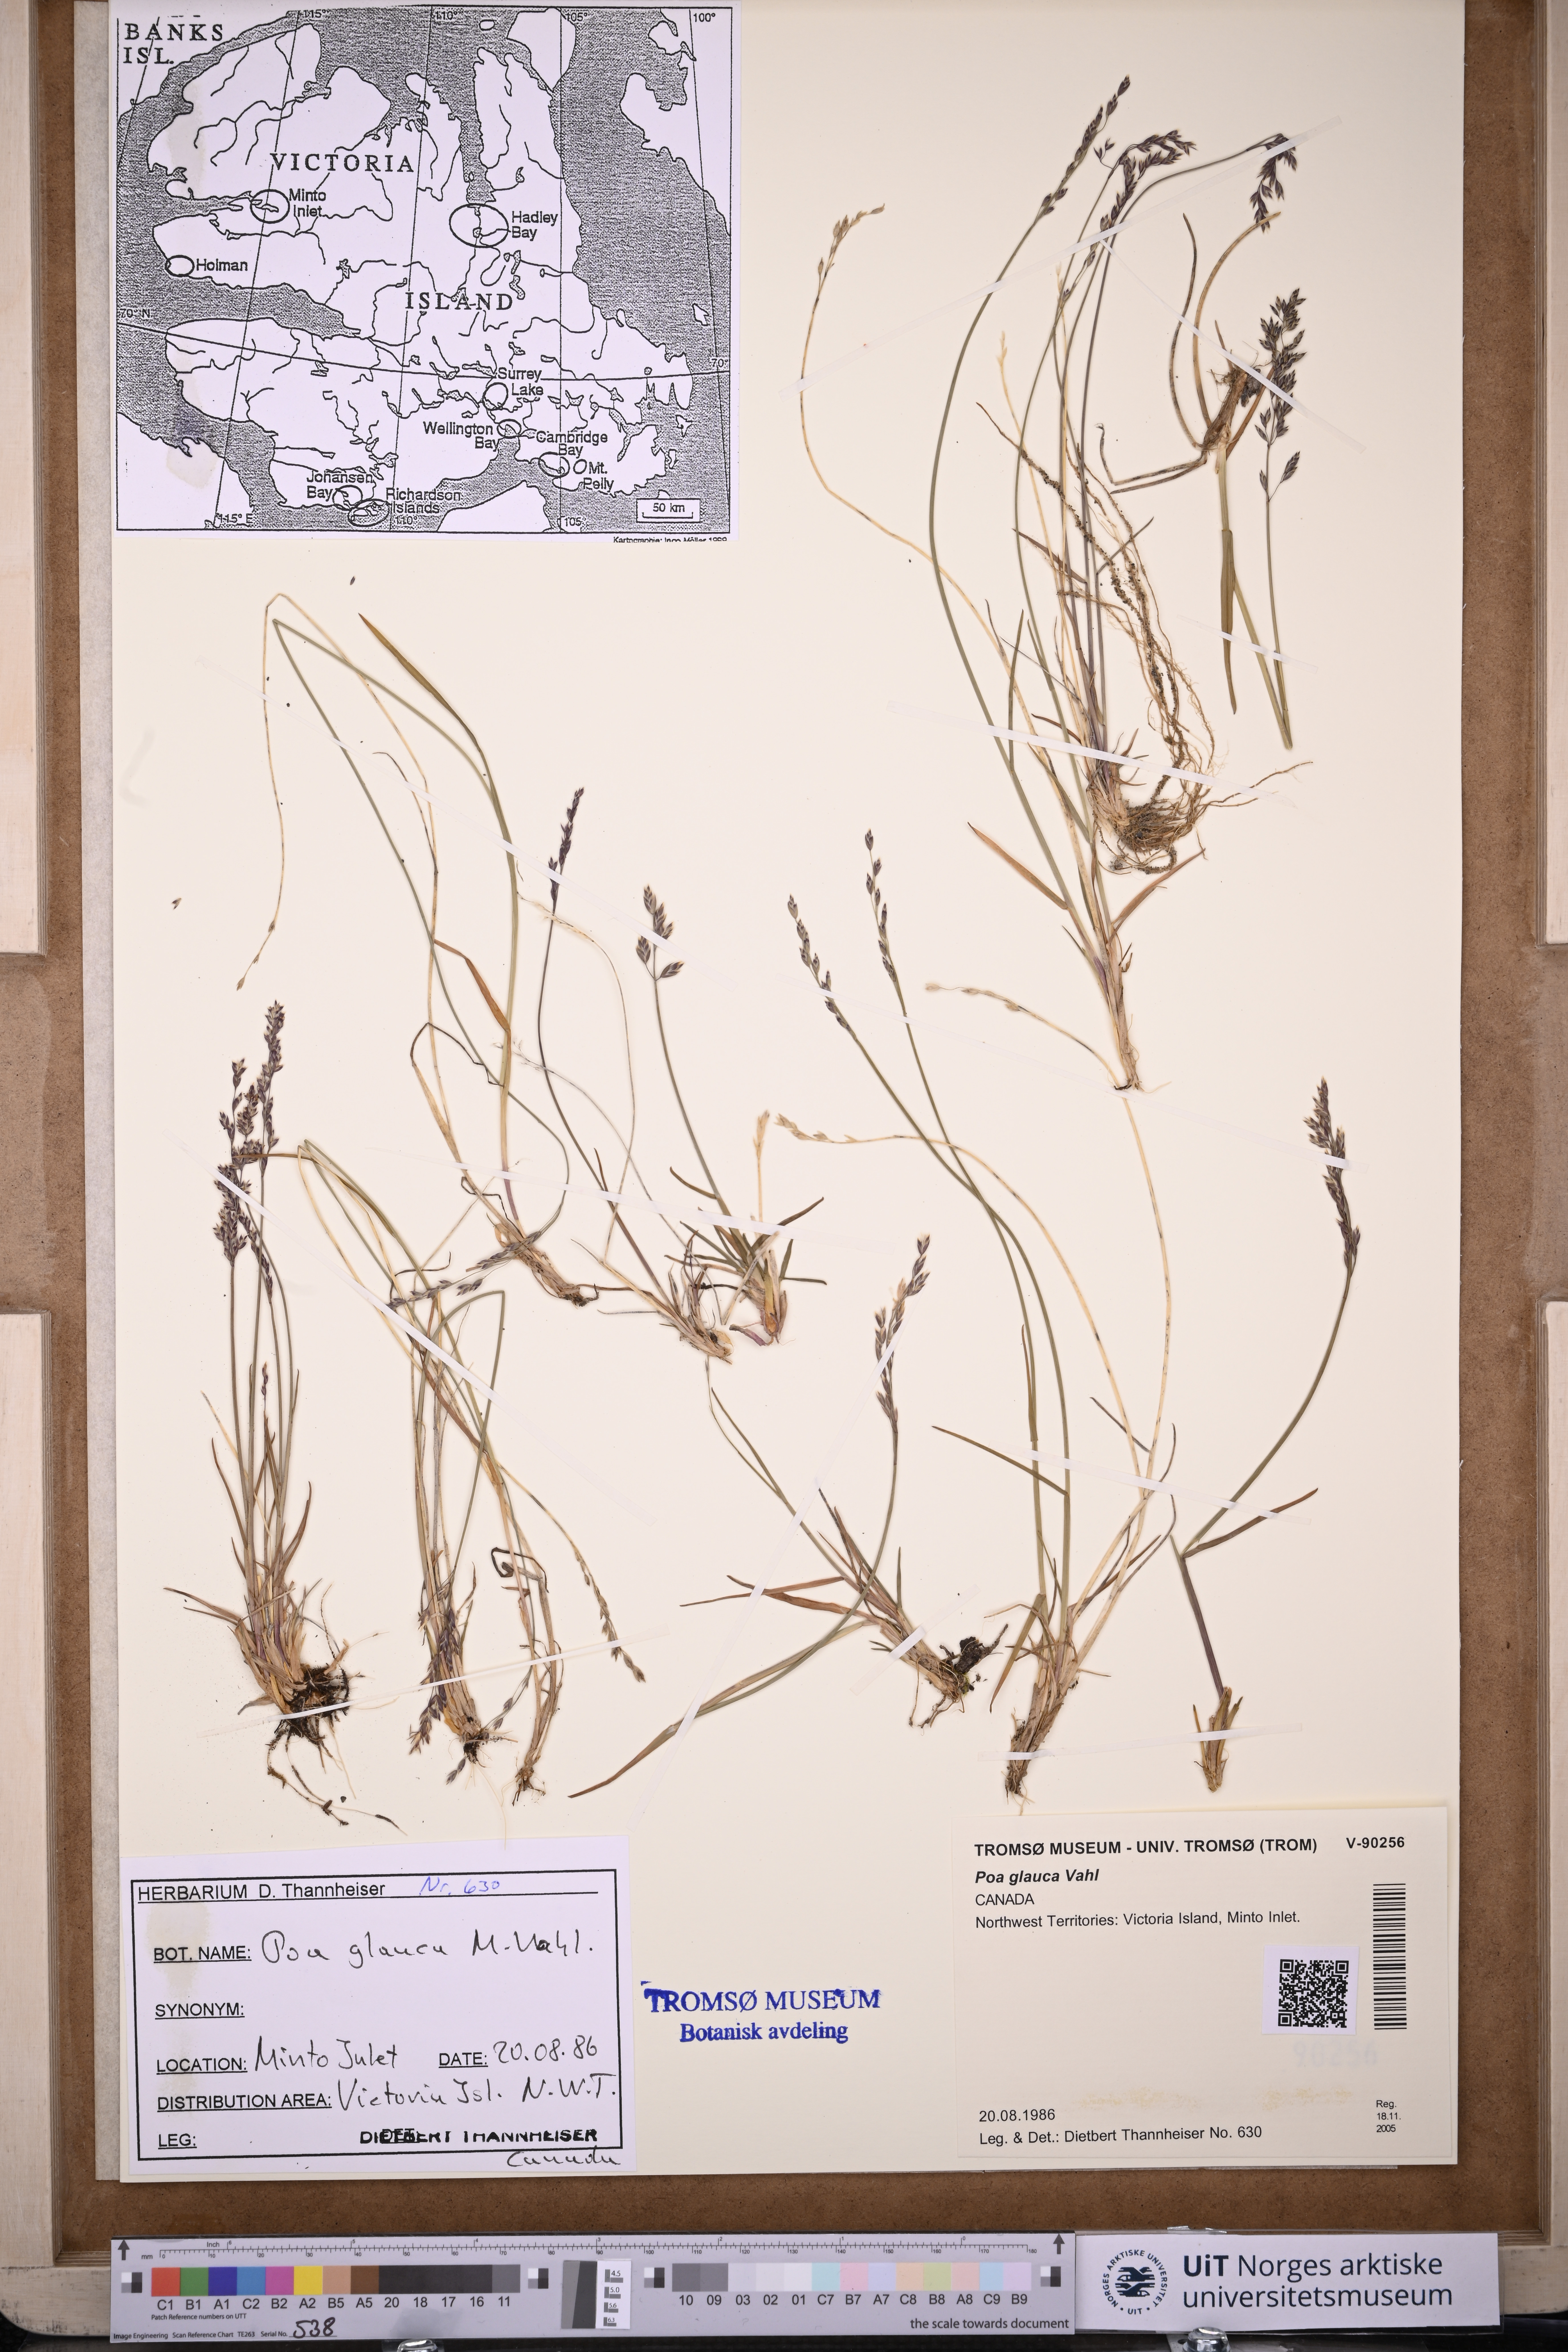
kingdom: Plantae
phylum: Tracheophyta
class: Liliopsida
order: Poales
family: Poaceae
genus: Poa
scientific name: Poa glauca
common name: Glaucous bluegrass
